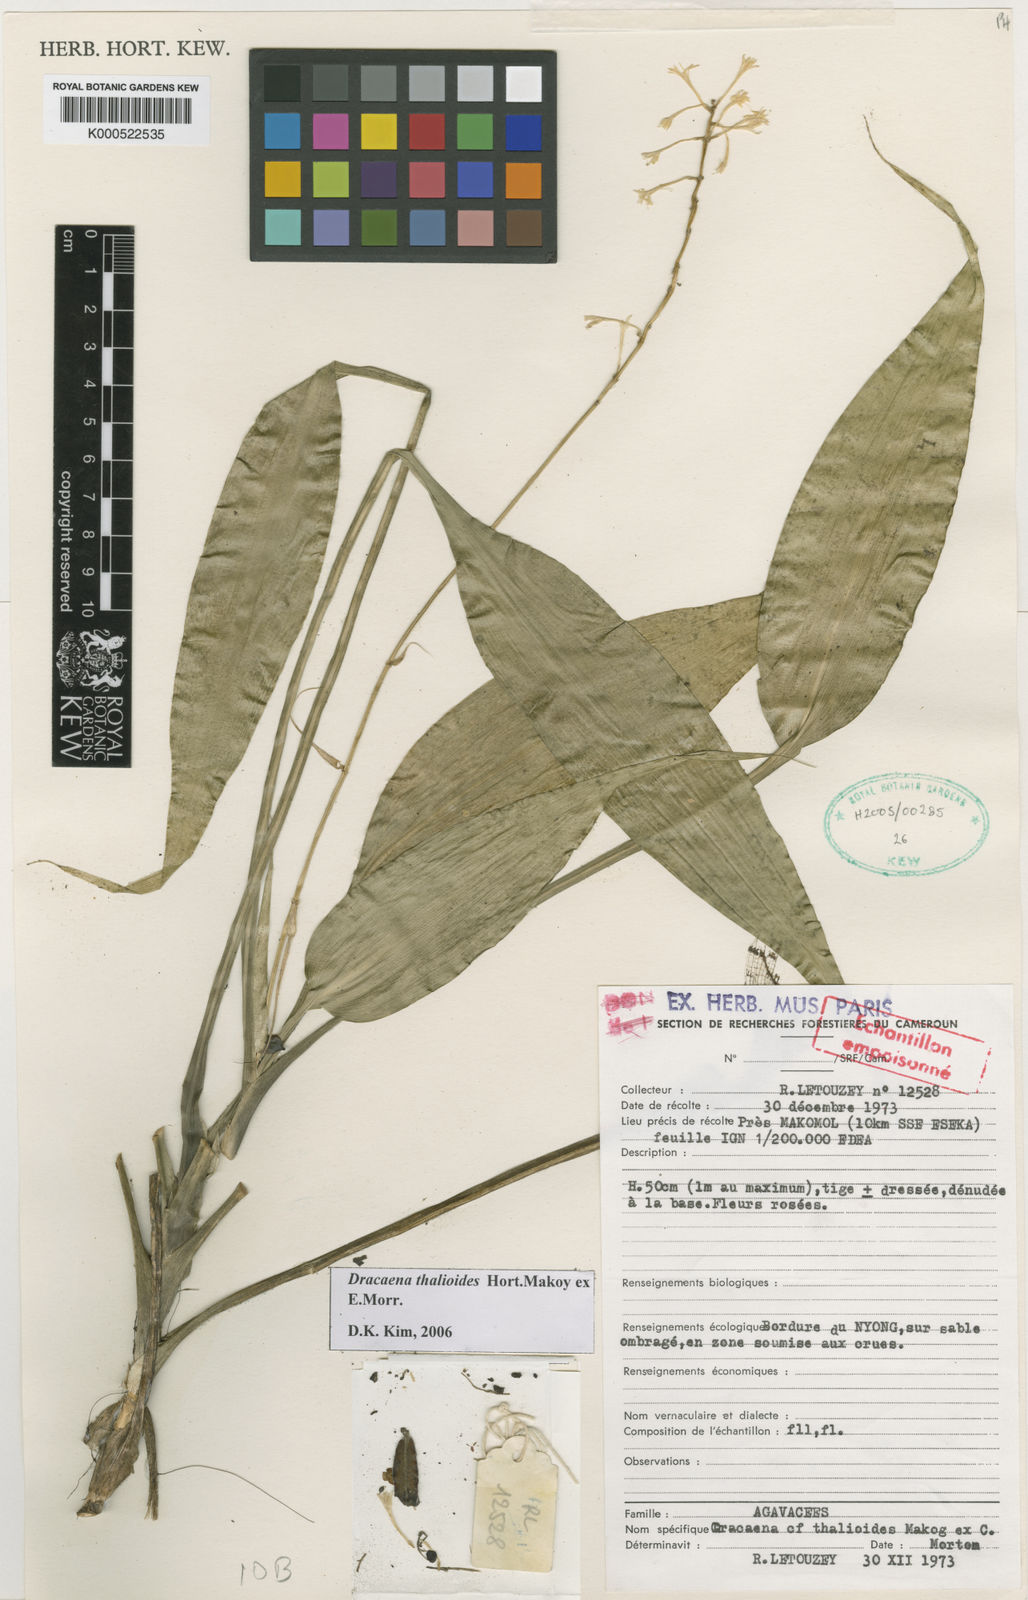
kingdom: Plantae
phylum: Tracheophyta
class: Liliopsida
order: Asparagales
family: Asparagaceae
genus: Dracaena
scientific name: Dracaena kindtiana
